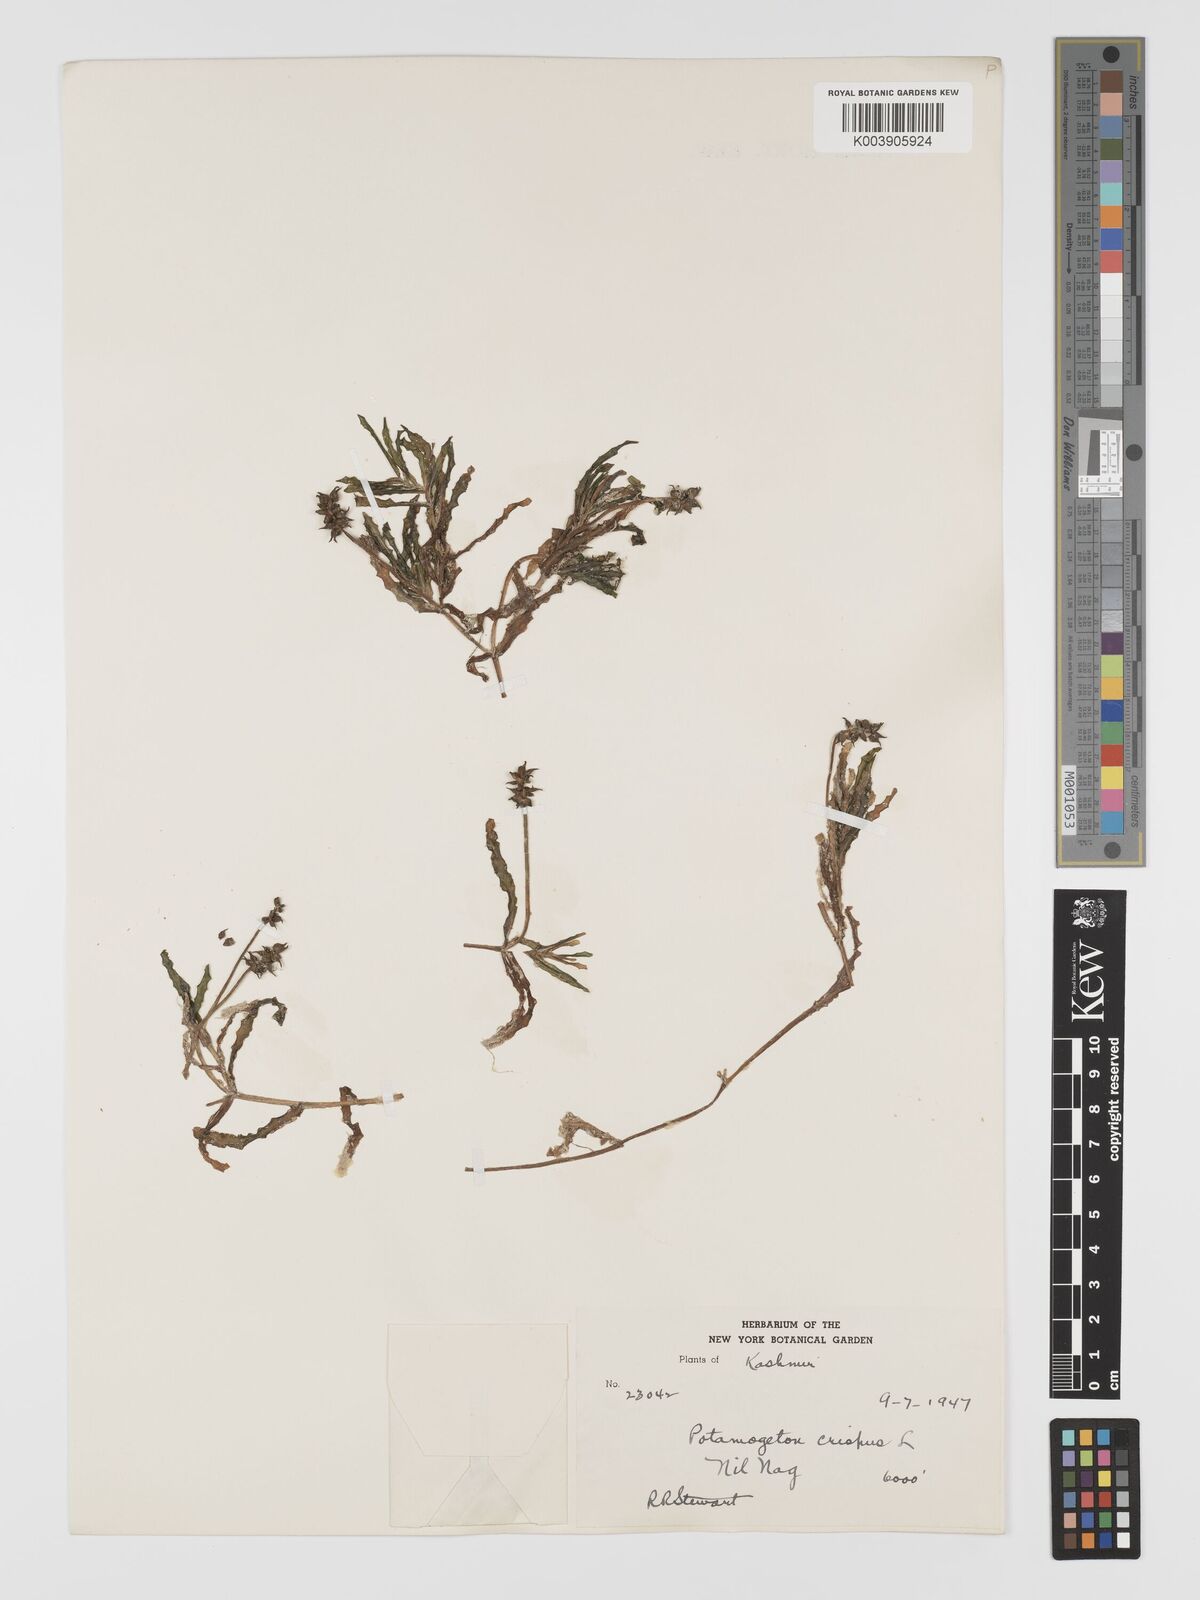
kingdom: Plantae
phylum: Tracheophyta
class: Liliopsida
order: Alismatales
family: Potamogetonaceae
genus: Potamogeton
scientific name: Potamogeton crispus
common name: Curled pondweed
